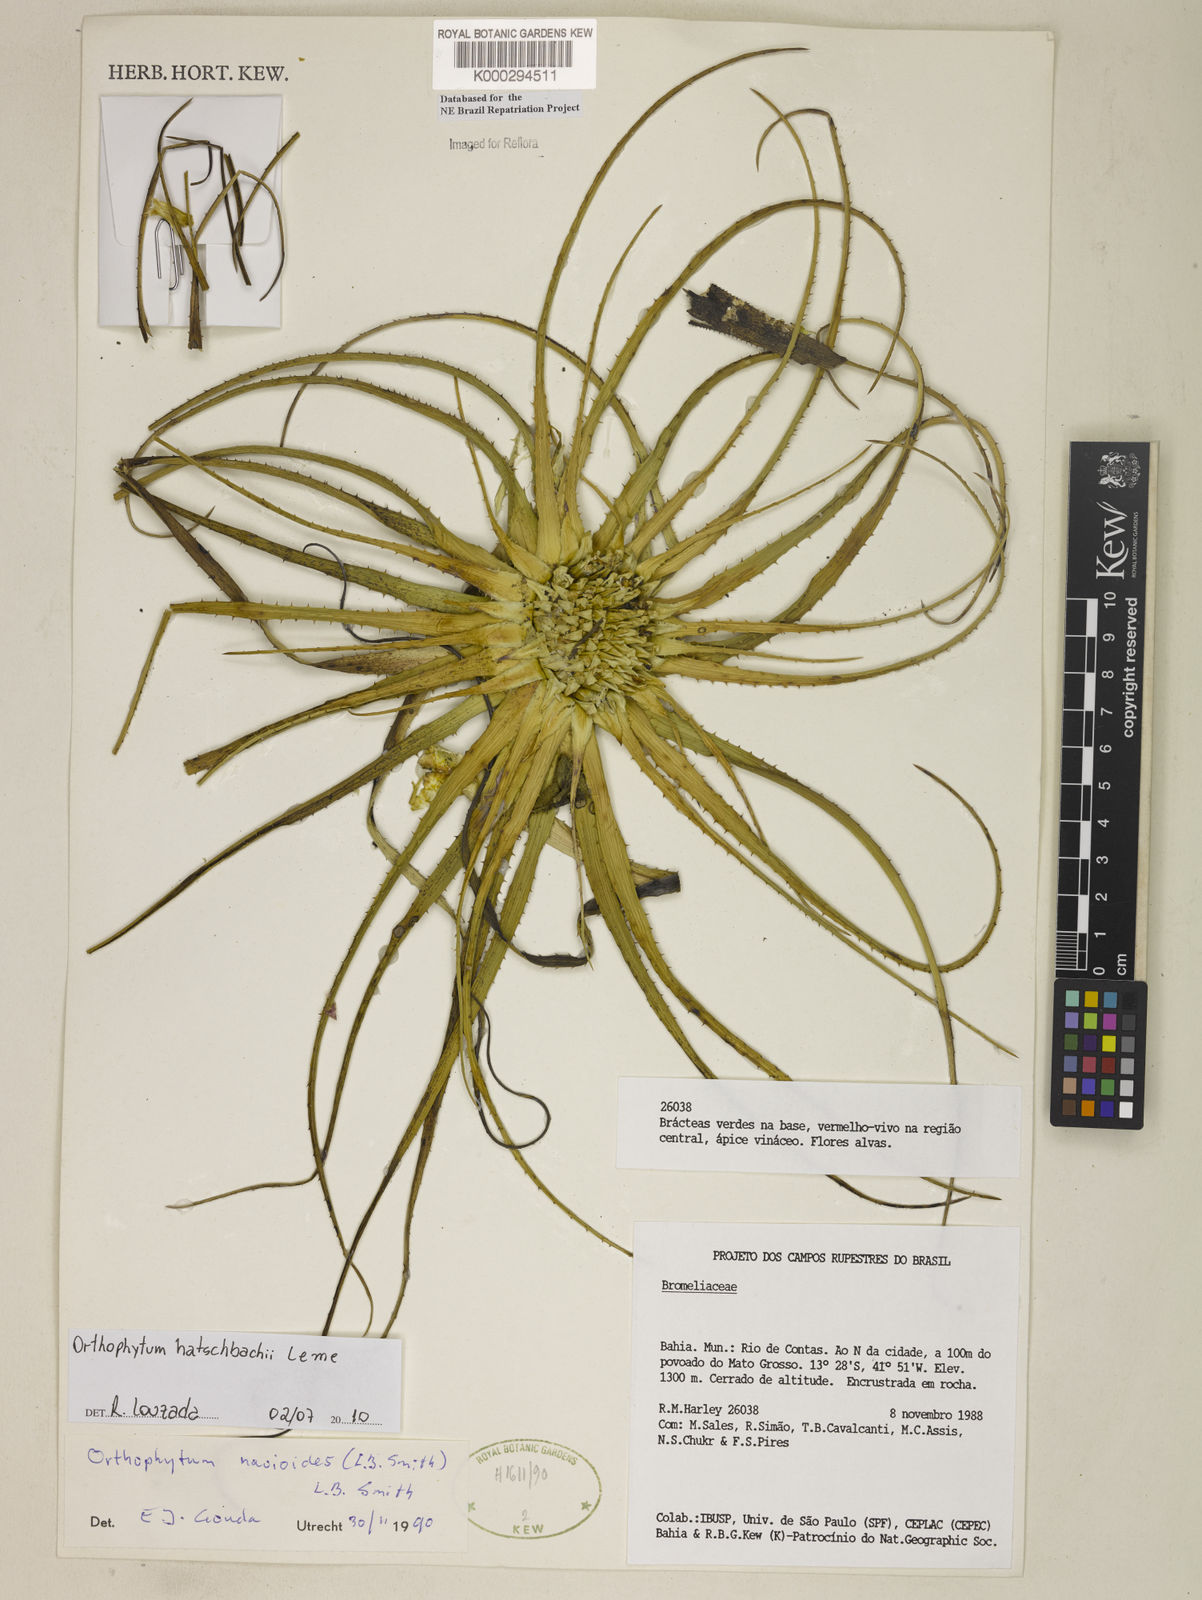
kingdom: Plantae
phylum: Tracheophyta
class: Liliopsida
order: Poales
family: Bromeliaceae
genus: Sincoraea
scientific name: Sincoraea navioides
